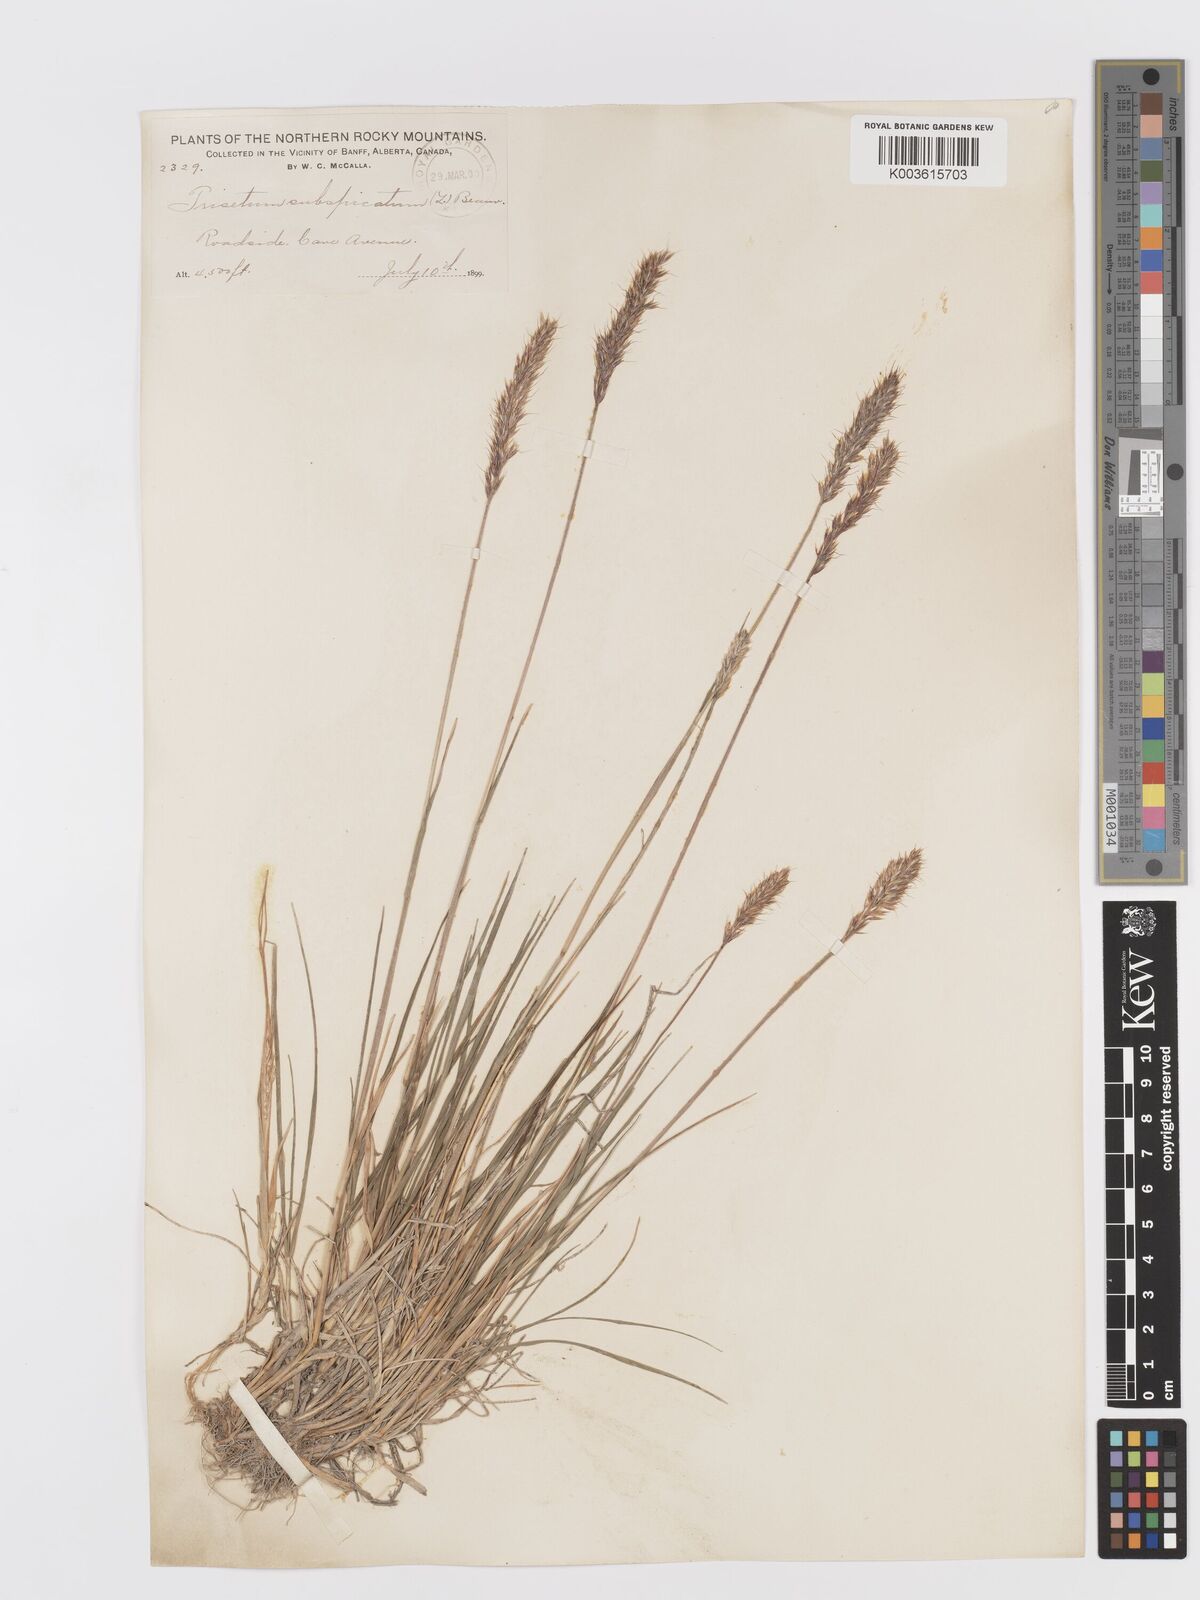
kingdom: Plantae
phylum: Tracheophyta
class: Liliopsida
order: Poales
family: Poaceae
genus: Koeleria
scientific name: Koeleria spicata
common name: Mountain trisetum
